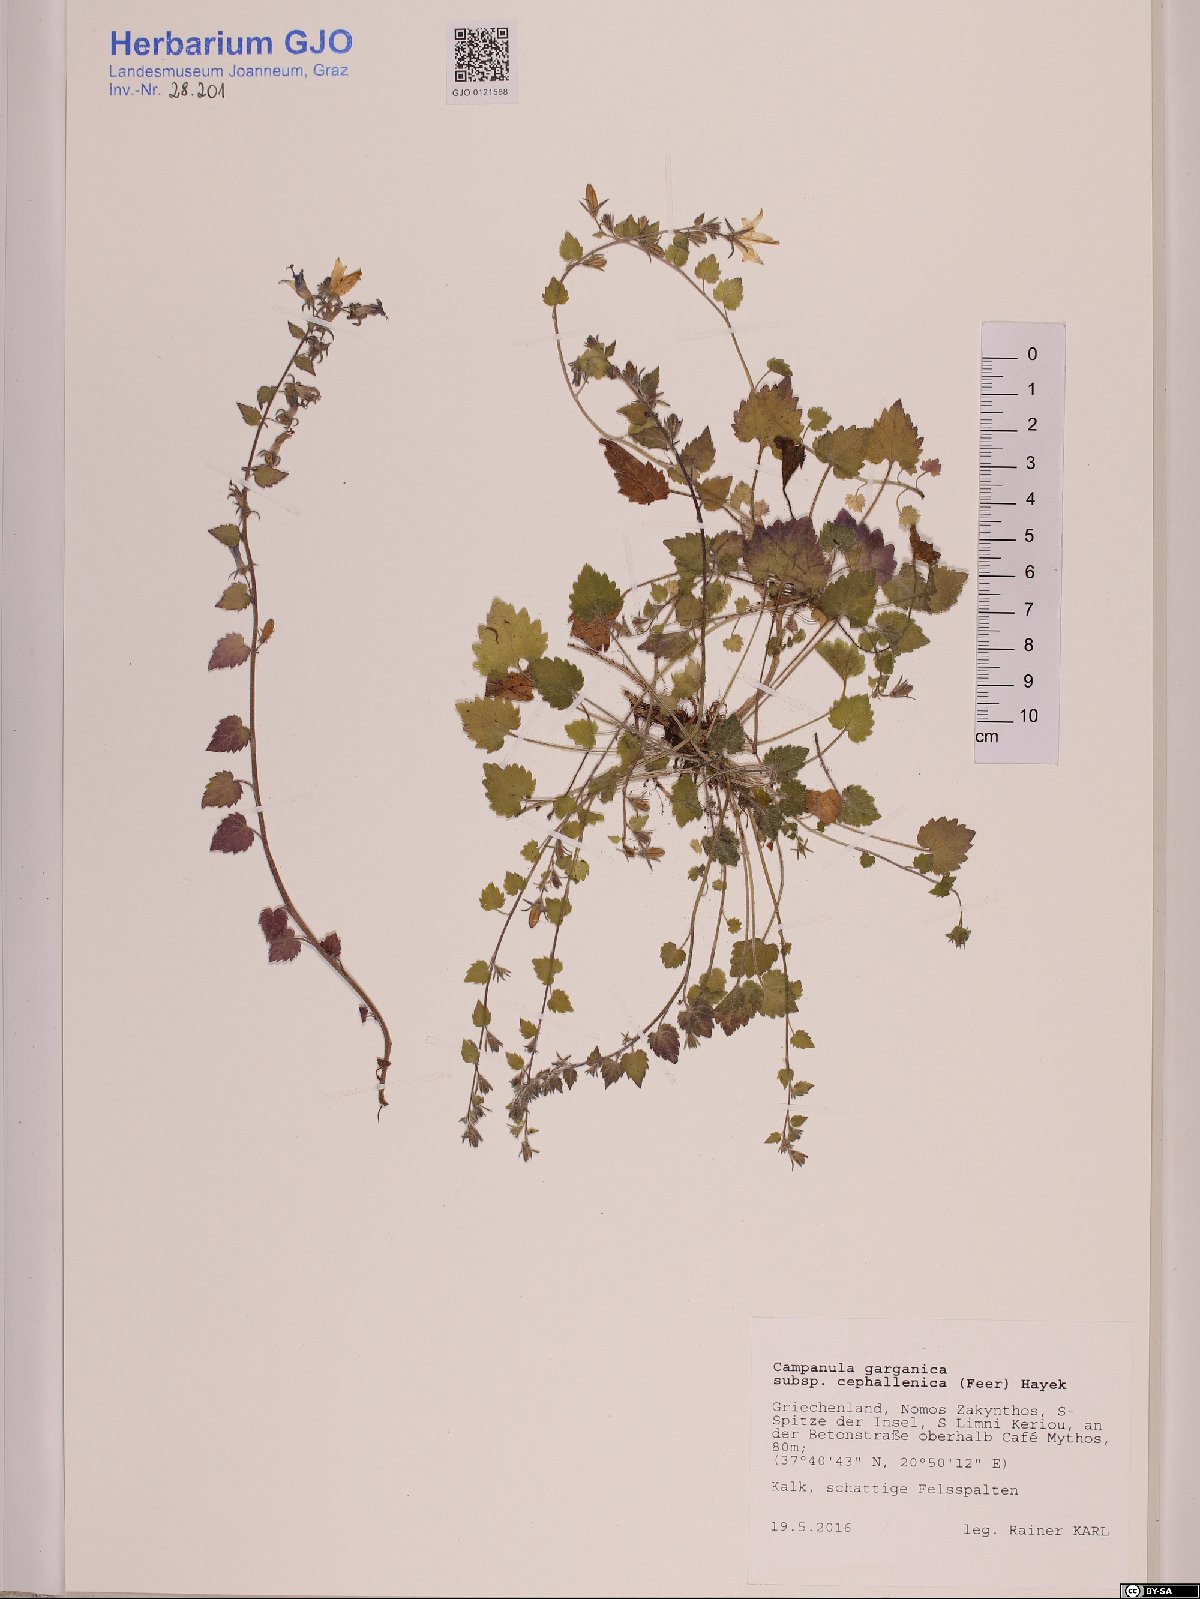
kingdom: Plantae
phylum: Tracheophyta
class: Magnoliopsida
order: Asterales
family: Campanulaceae
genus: Campanula
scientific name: Campanula garganica
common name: Adriatic bellflower
